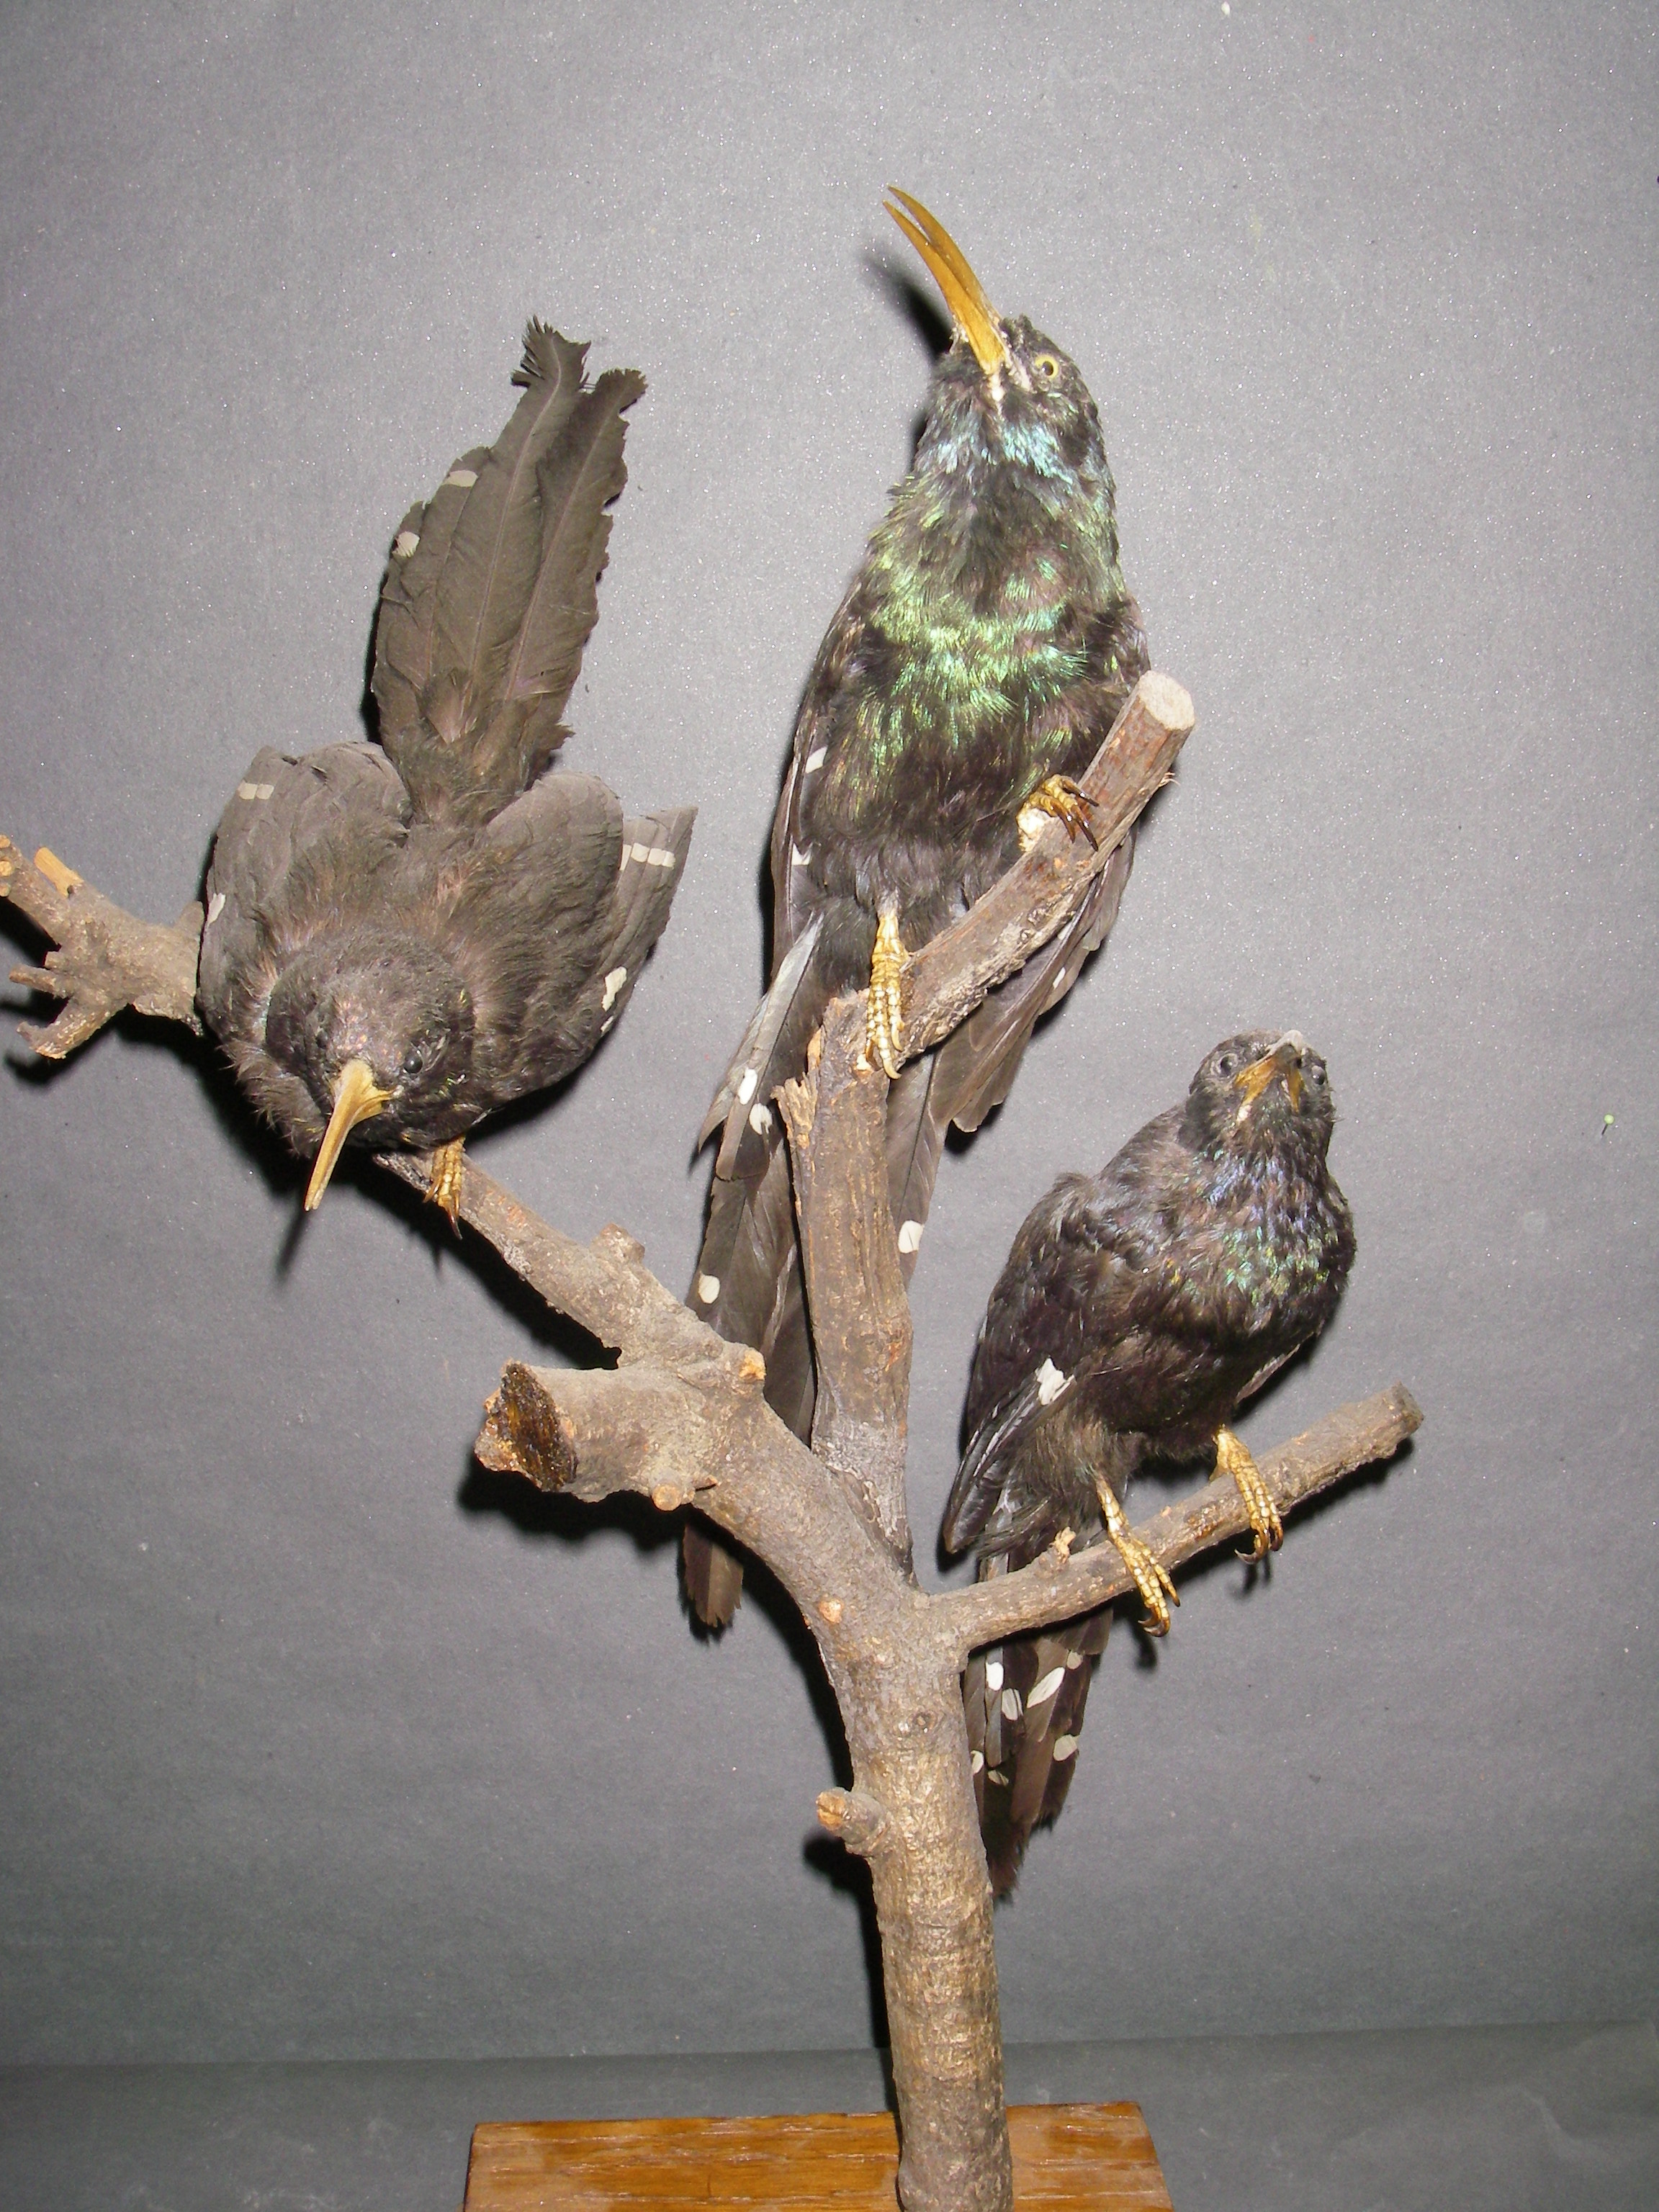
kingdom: Animalia
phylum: Chordata
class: Aves
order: Bucerotiformes
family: Phoeniculidae
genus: Phoeniculus
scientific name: Phoeniculus purpureus
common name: Green woodhoopoe
